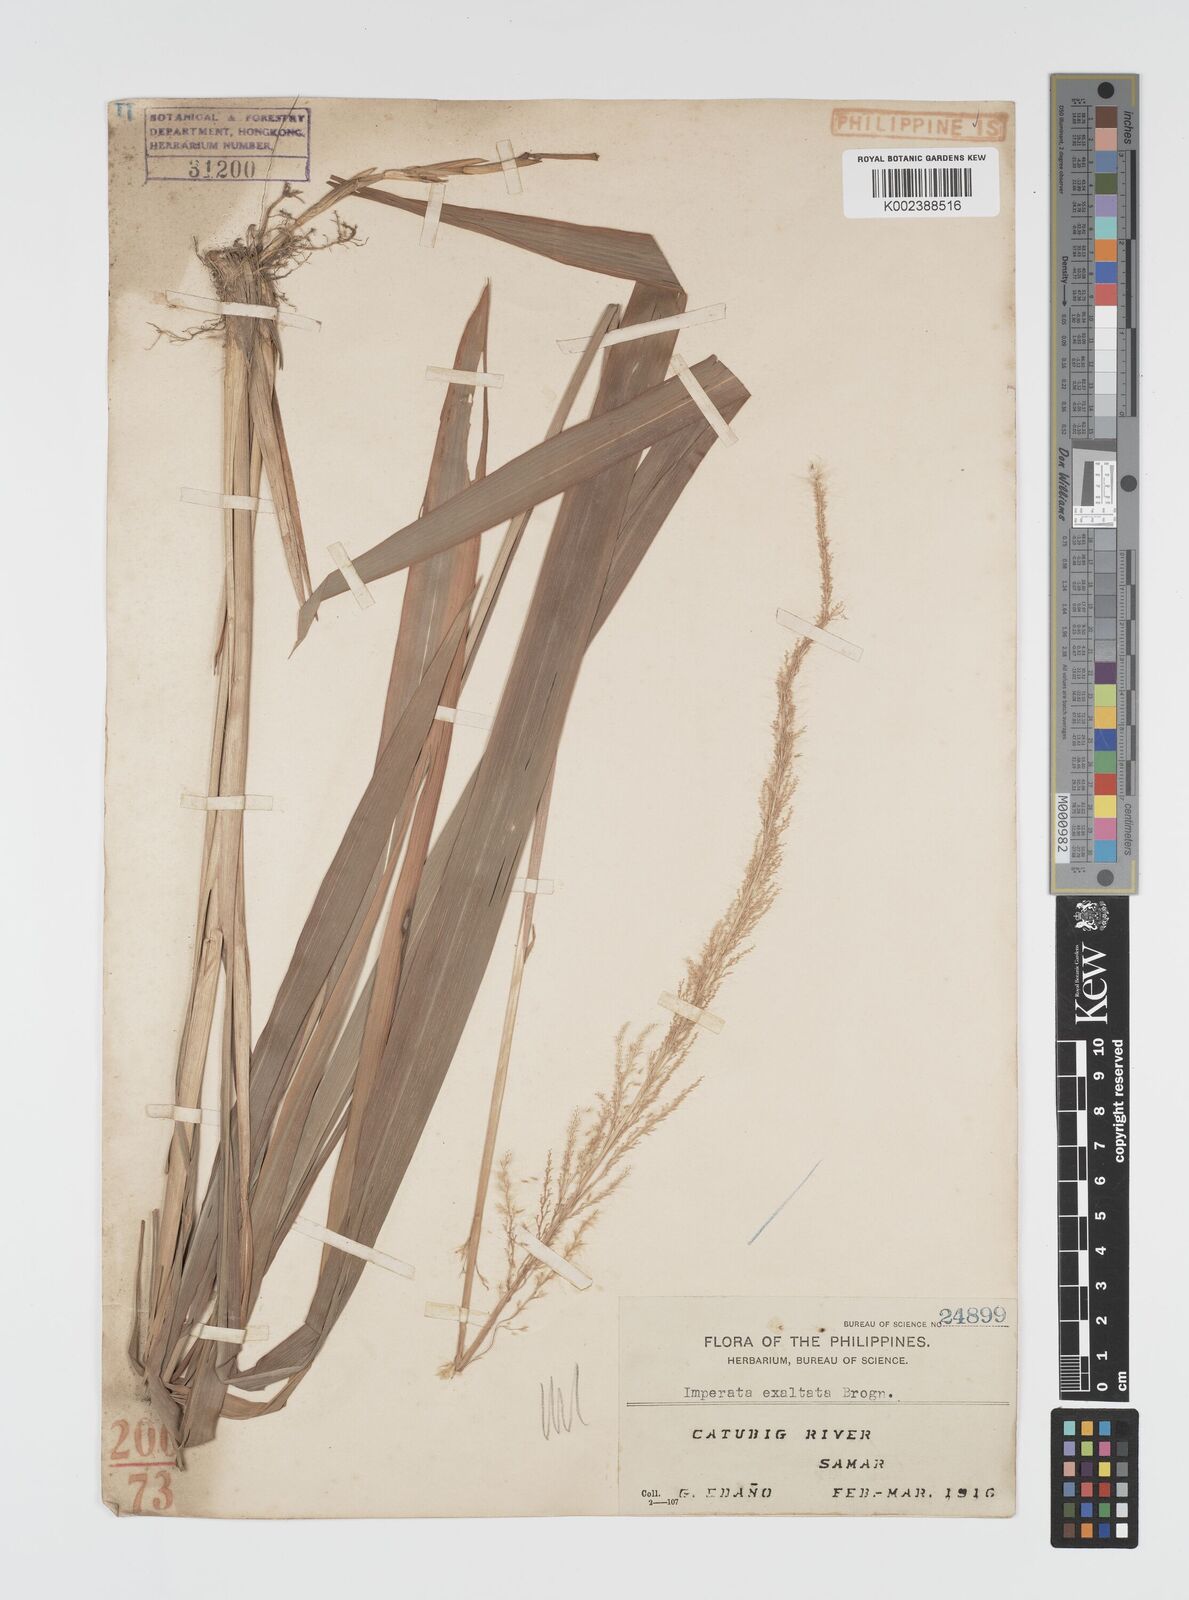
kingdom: Plantae
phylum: Tracheophyta
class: Liliopsida
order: Poales
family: Poaceae
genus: Imperata
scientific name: Imperata conferta
